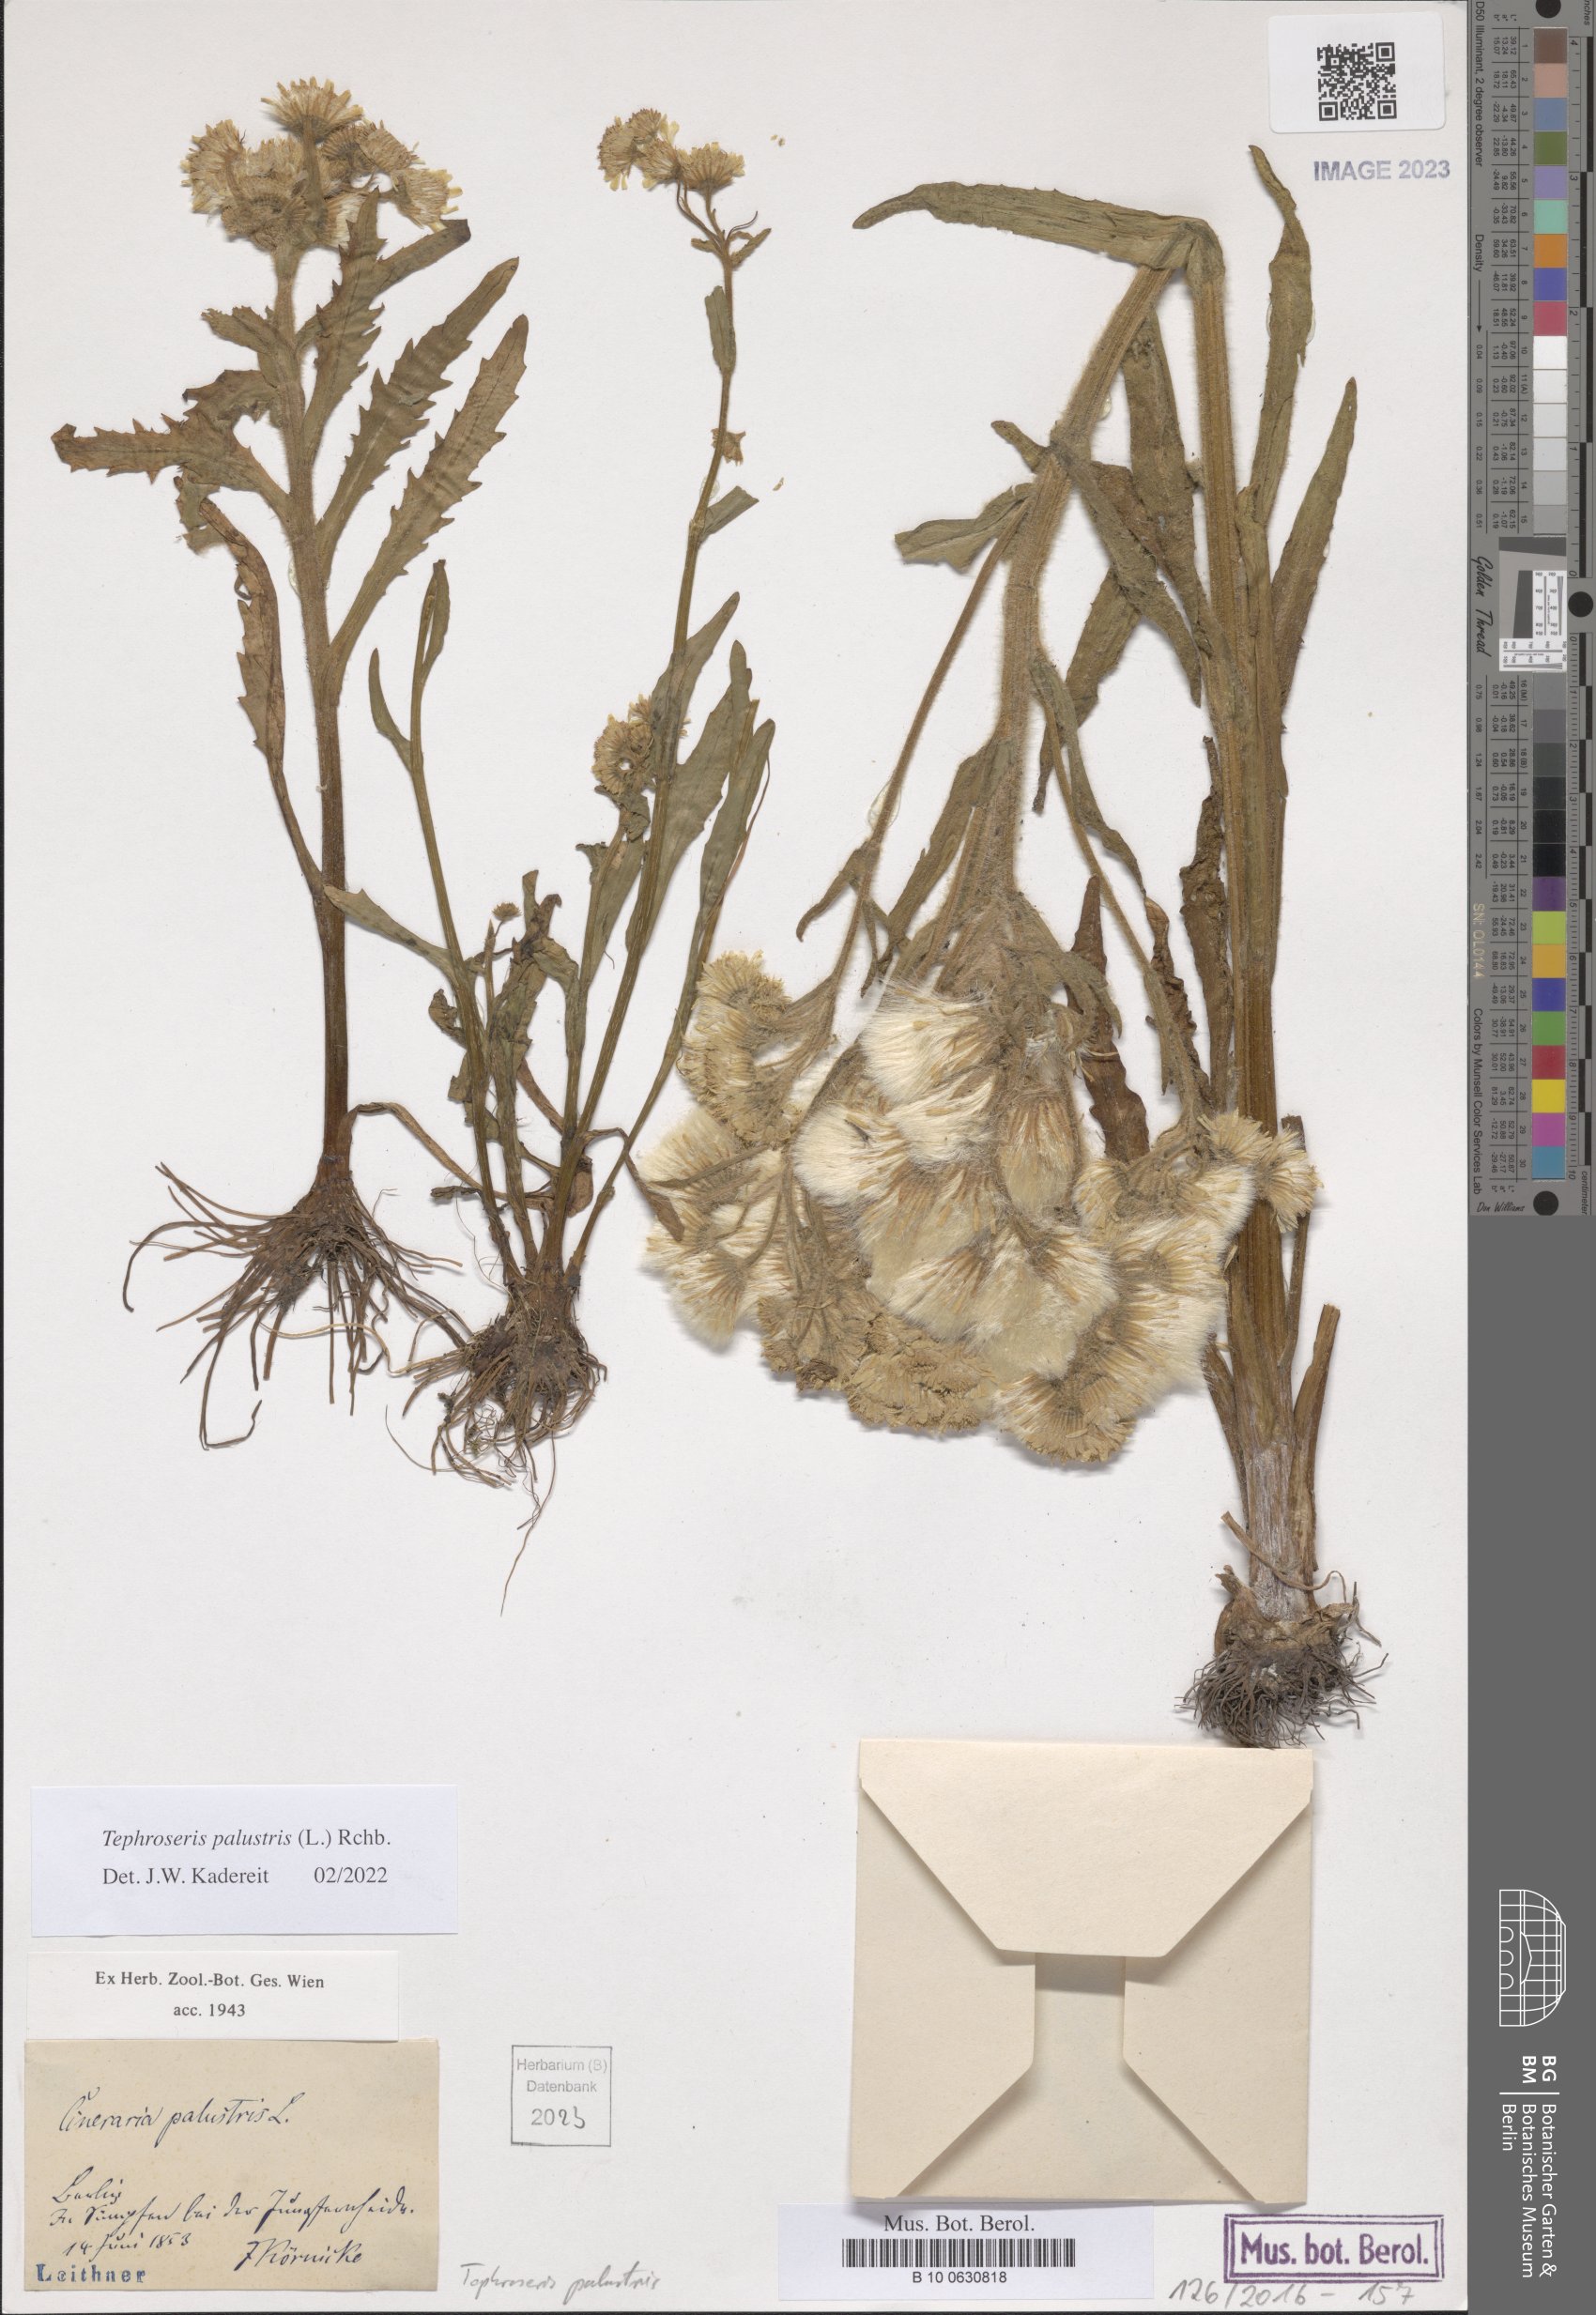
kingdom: Plantae
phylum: Tracheophyta
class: Magnoliopsida
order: Asterales
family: Asteraceae
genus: Tephroseris
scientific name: Tephroseris palustris
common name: Marsh fleawort
